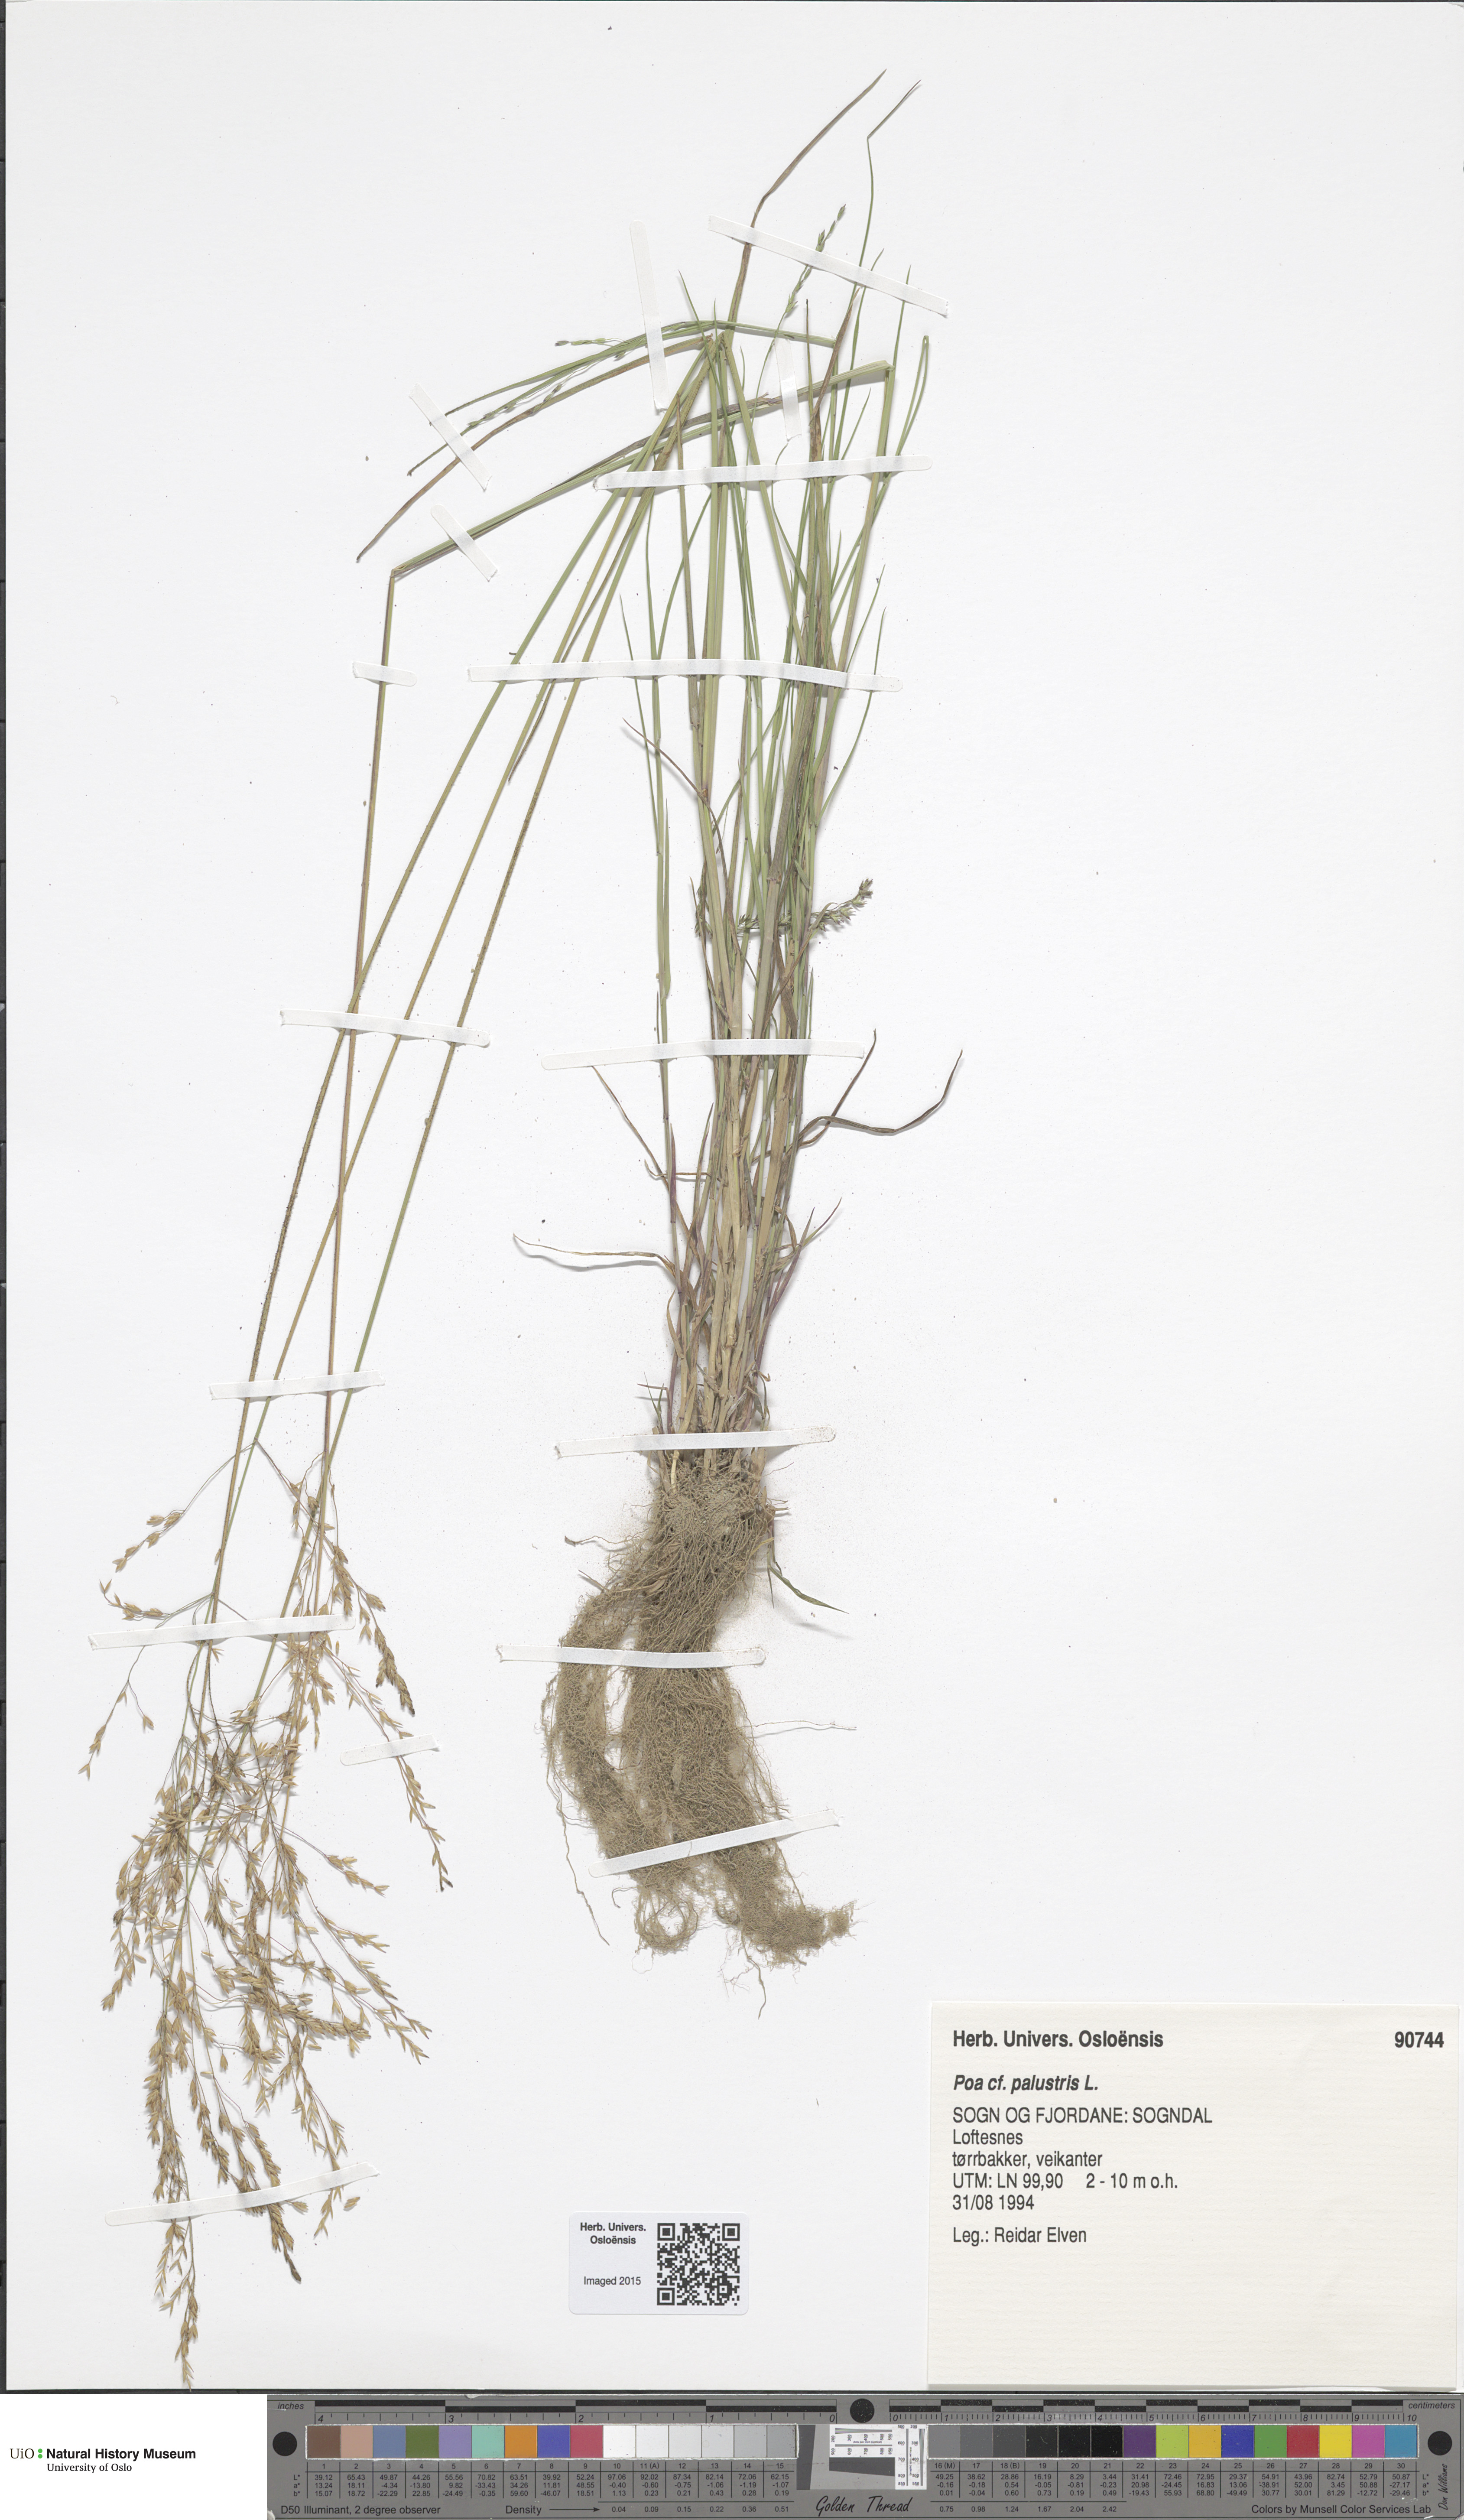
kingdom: Plantae
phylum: Tracheophyta
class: Liliopsida
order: Poales
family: Poaceae
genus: Poa
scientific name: Poa palustris
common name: Swamp meadow-grass
